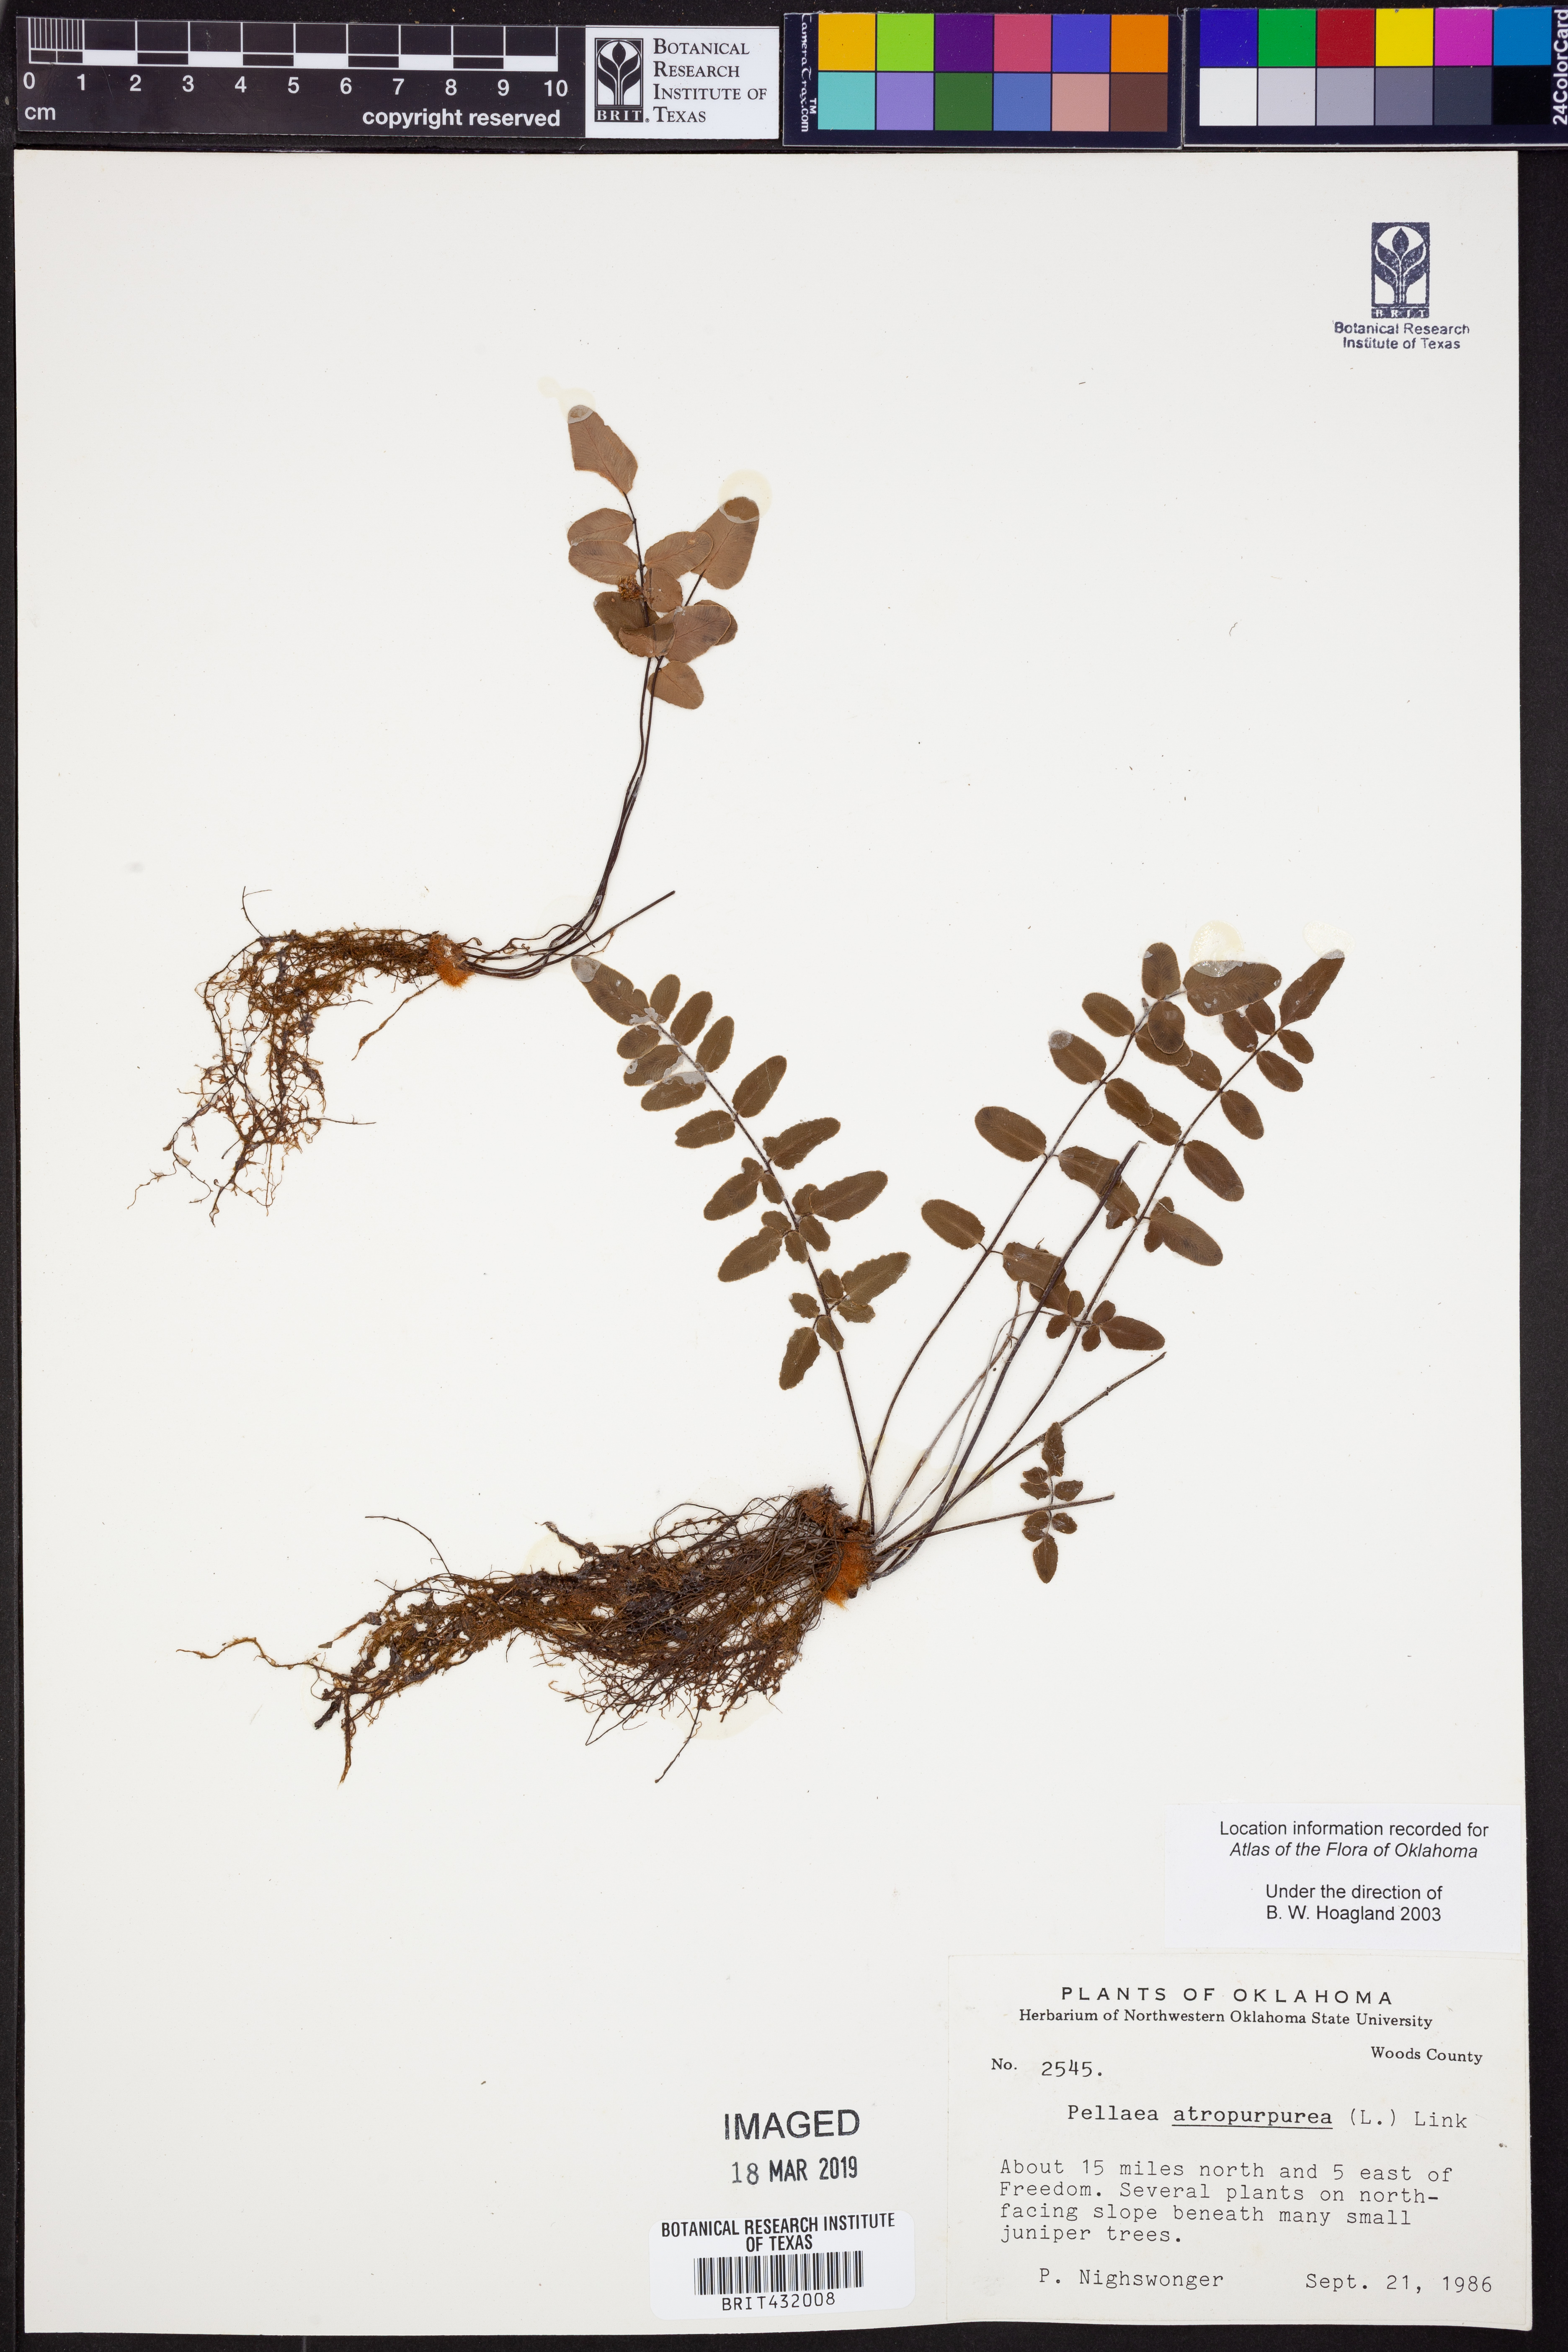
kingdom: Plantae
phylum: Tracheophyta
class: Polypodiopsida
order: Polypodiales
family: Pteridaceae
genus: Pellaea
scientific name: Pellaea atropurpurea
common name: Hairy cliffbrake
